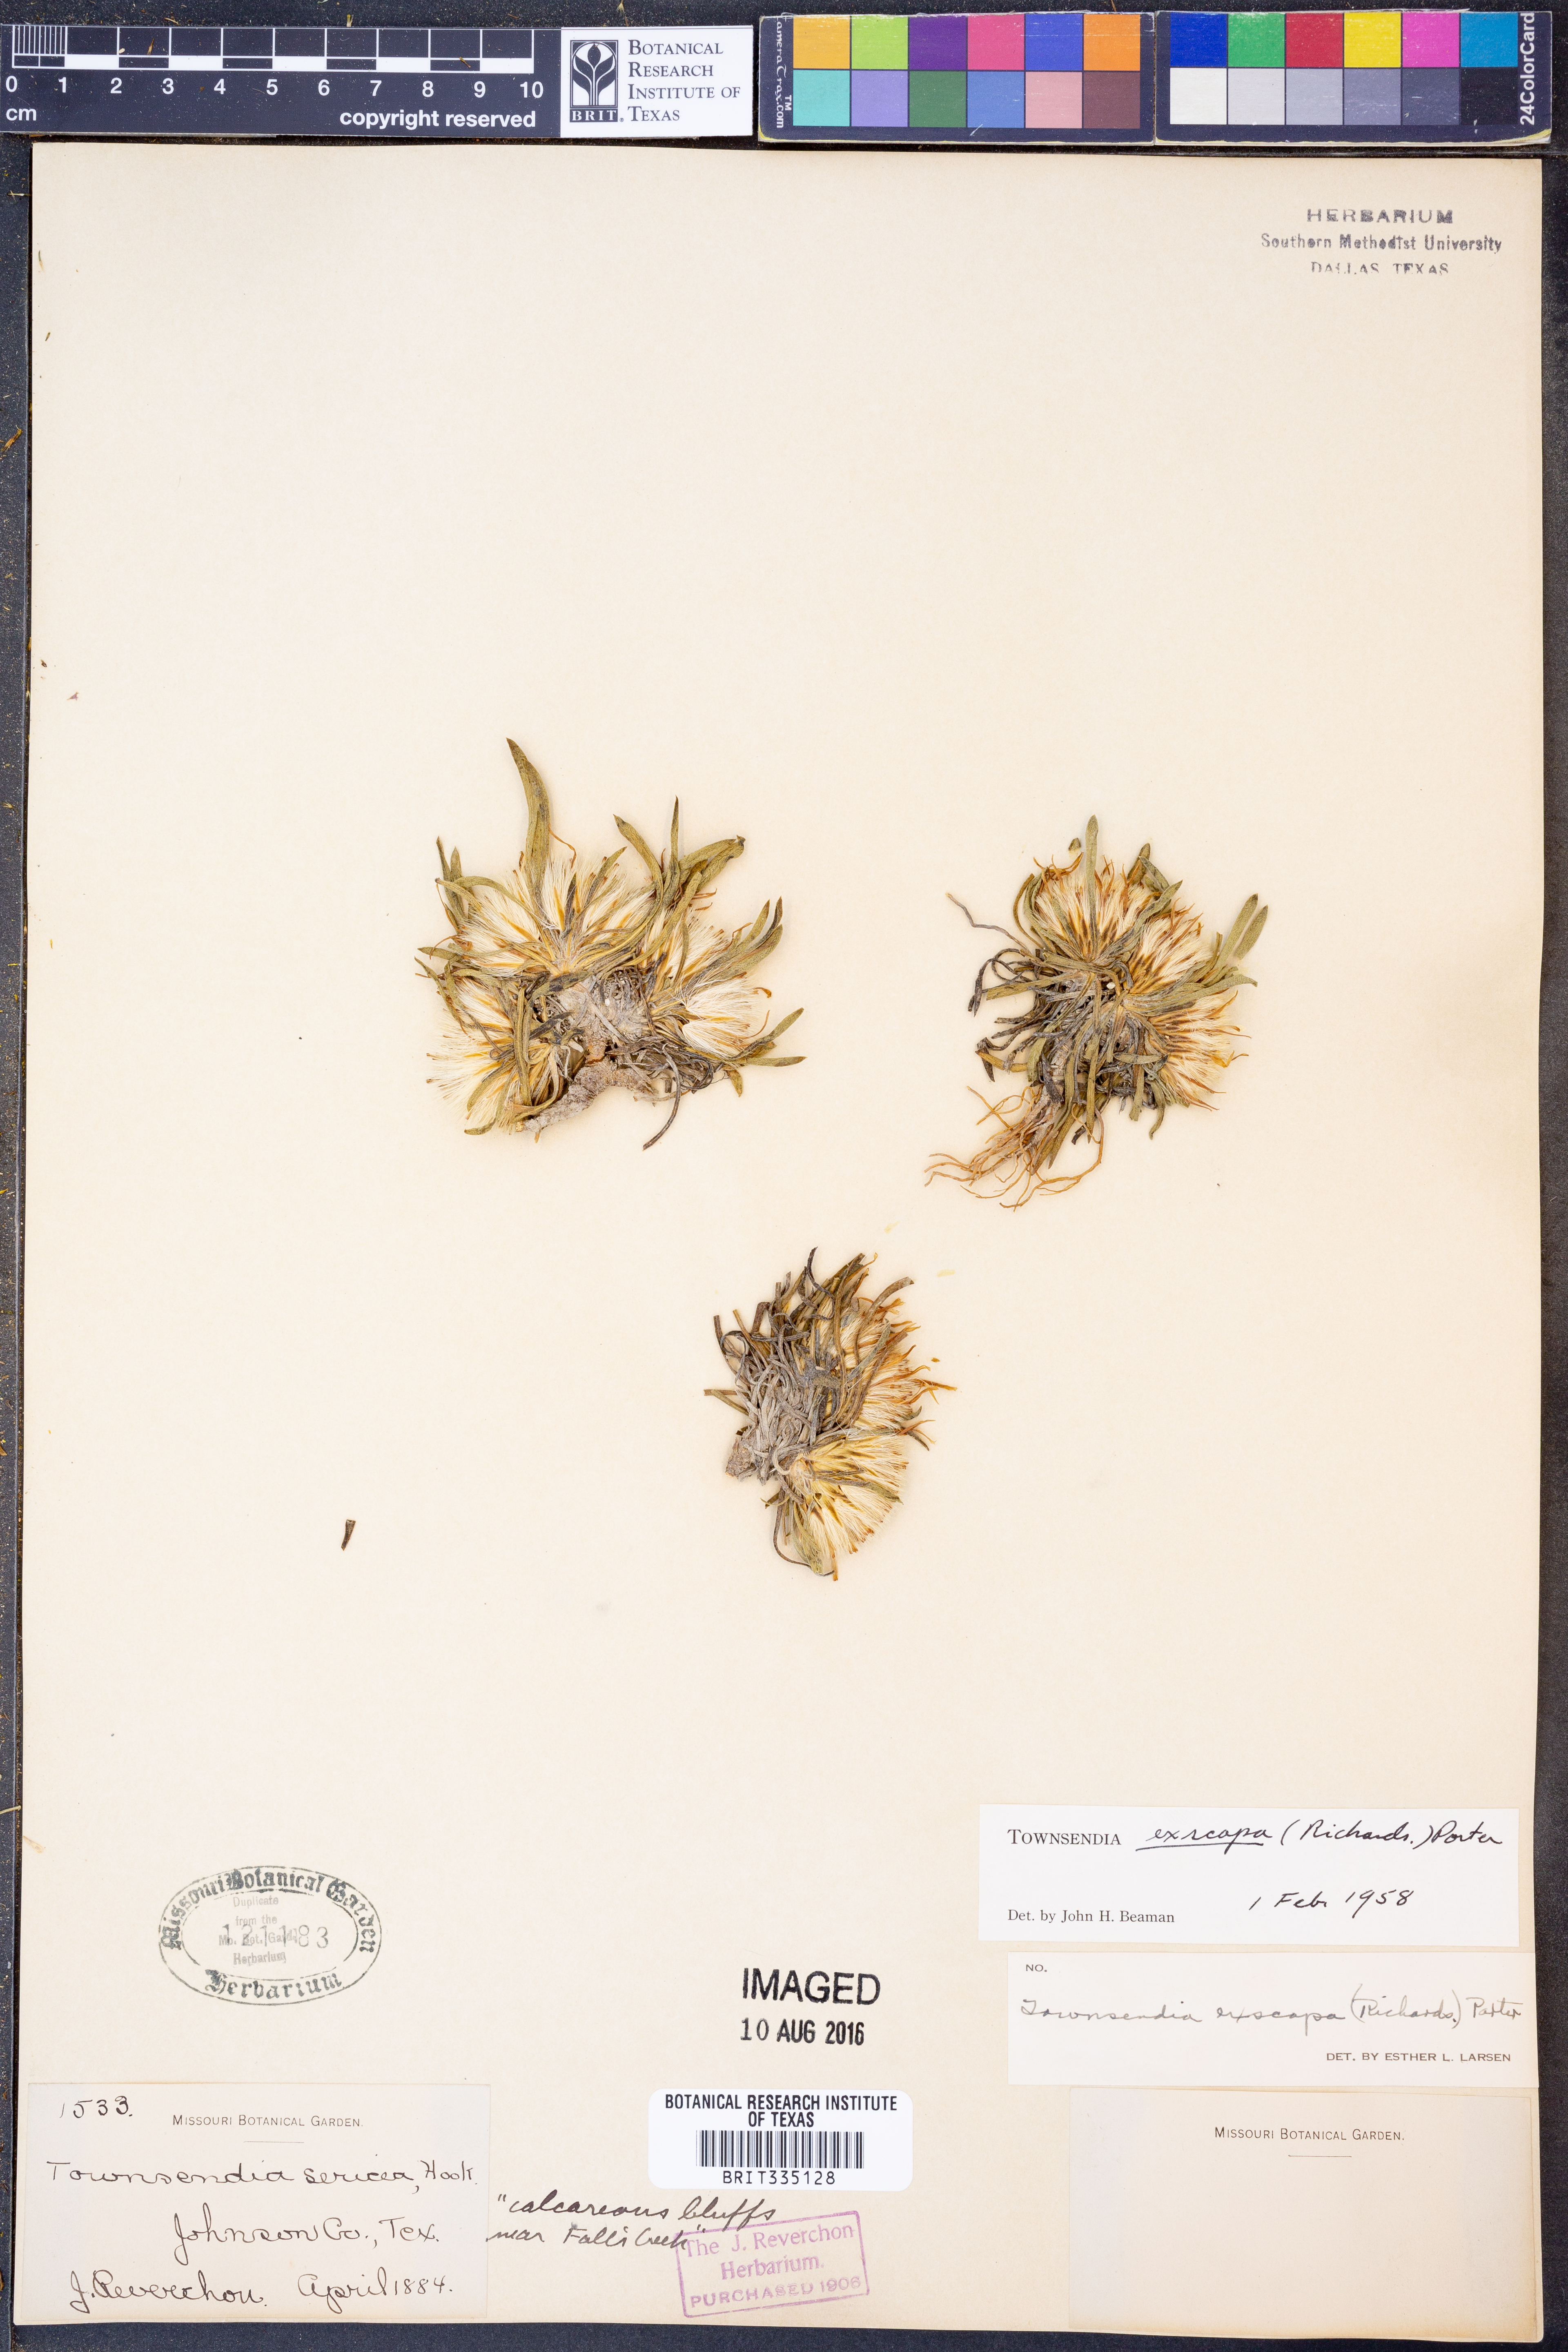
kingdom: Plantae
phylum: Tracheophyta
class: Magnoliopsida
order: Asterales
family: Asteraceae
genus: Townsendia
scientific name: Townsendia exscapa
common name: Dwarf townsendia
